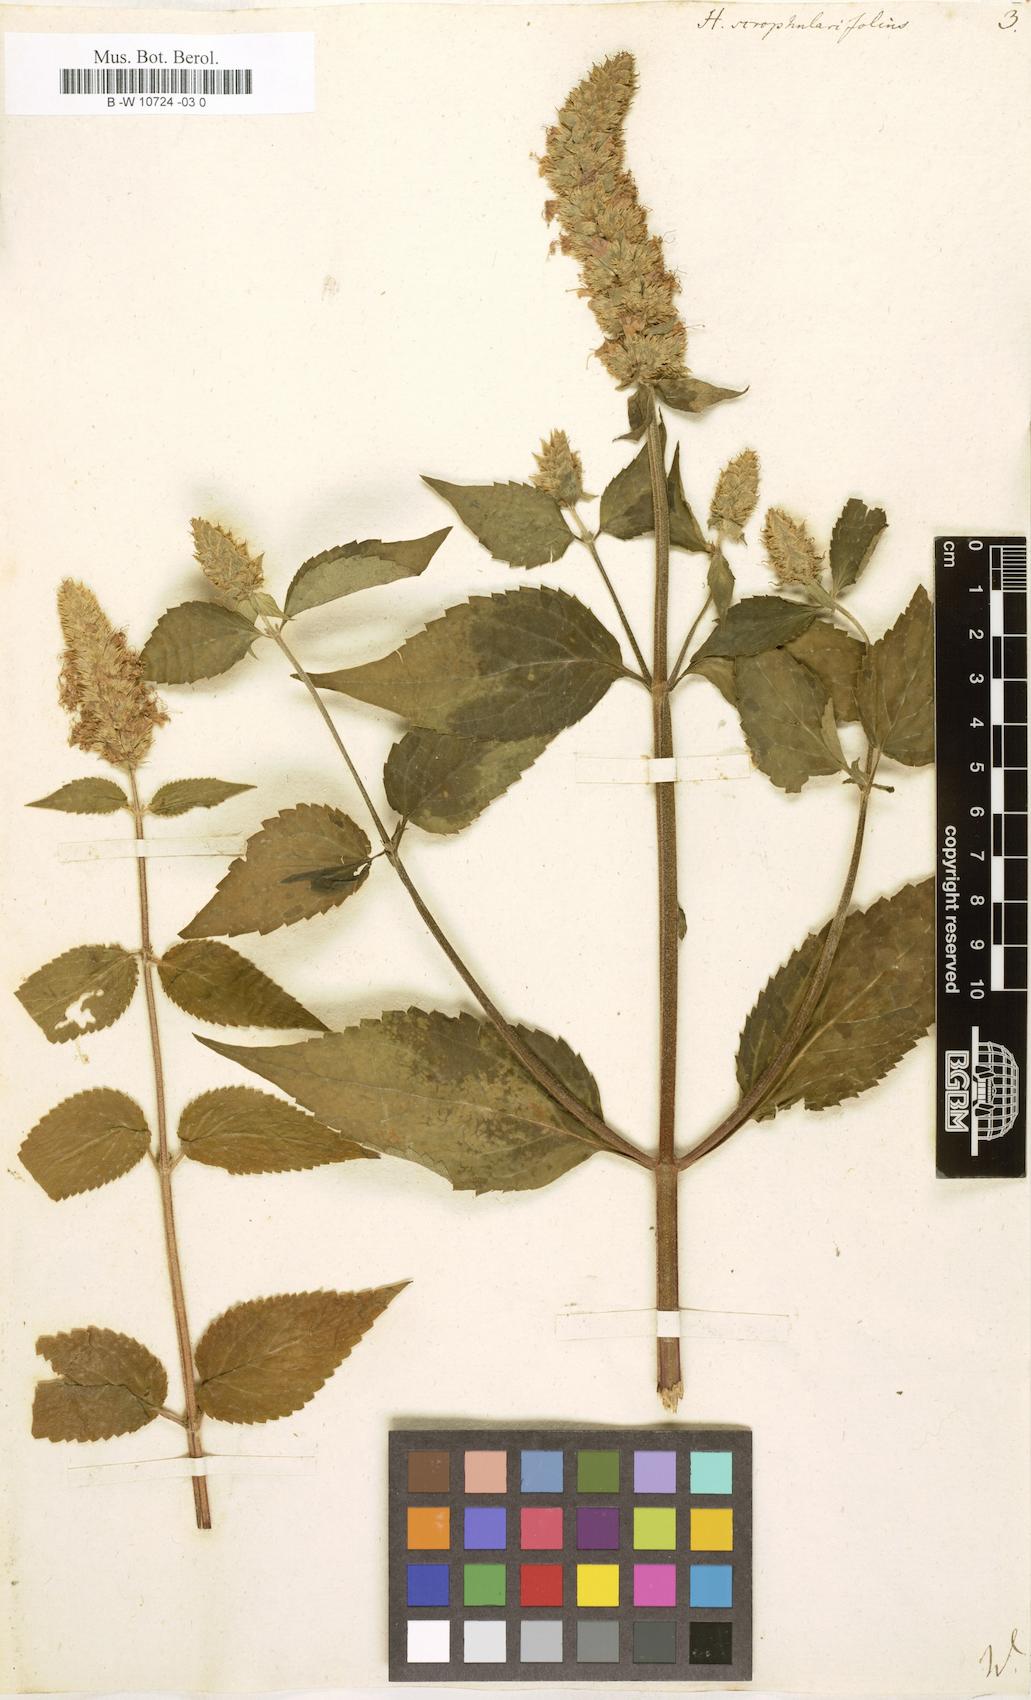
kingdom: Plantae
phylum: Tracheophyta
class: Magnoliopsida
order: Lamiales
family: Lamiaceae
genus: Agastache
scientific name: Agastache scrophulariifolia
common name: Figwort giant hyssop
